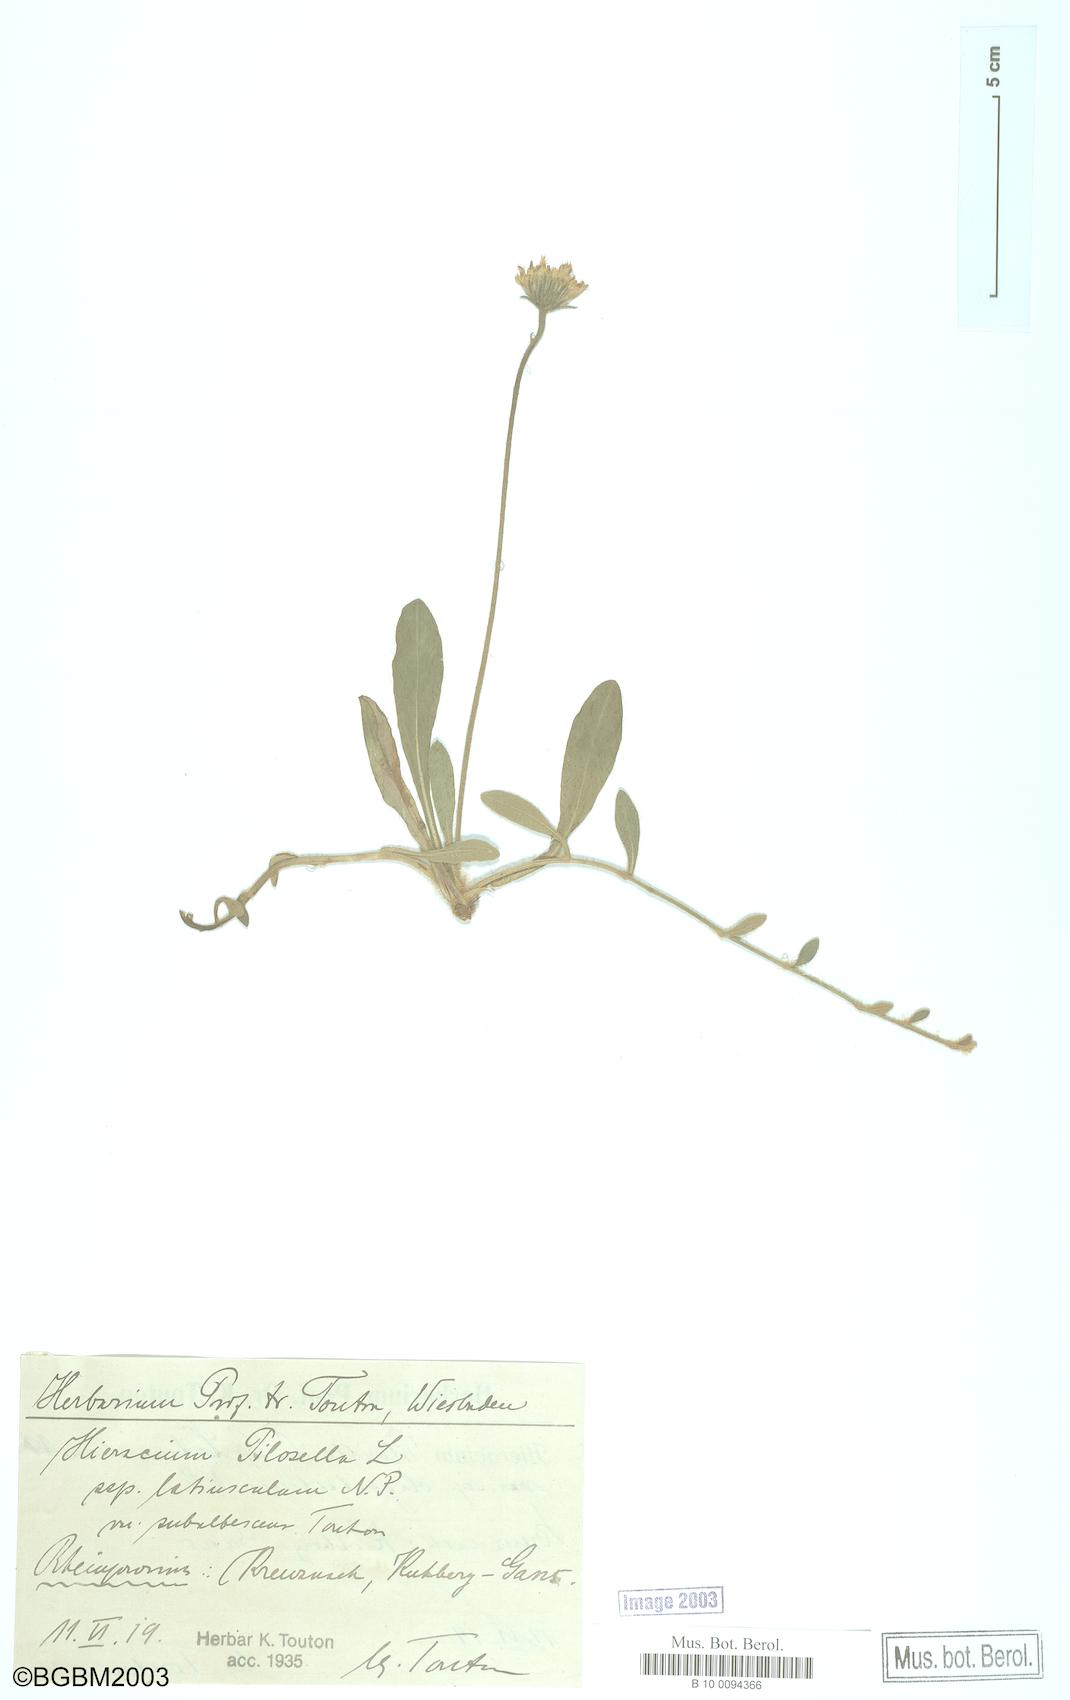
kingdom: Plantae
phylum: Tracheophyta
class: Magnoliopsida
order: Asterales
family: Asteraceae
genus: Pilosella
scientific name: Pilosella officinarum
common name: Mouse-ear hawkweed
